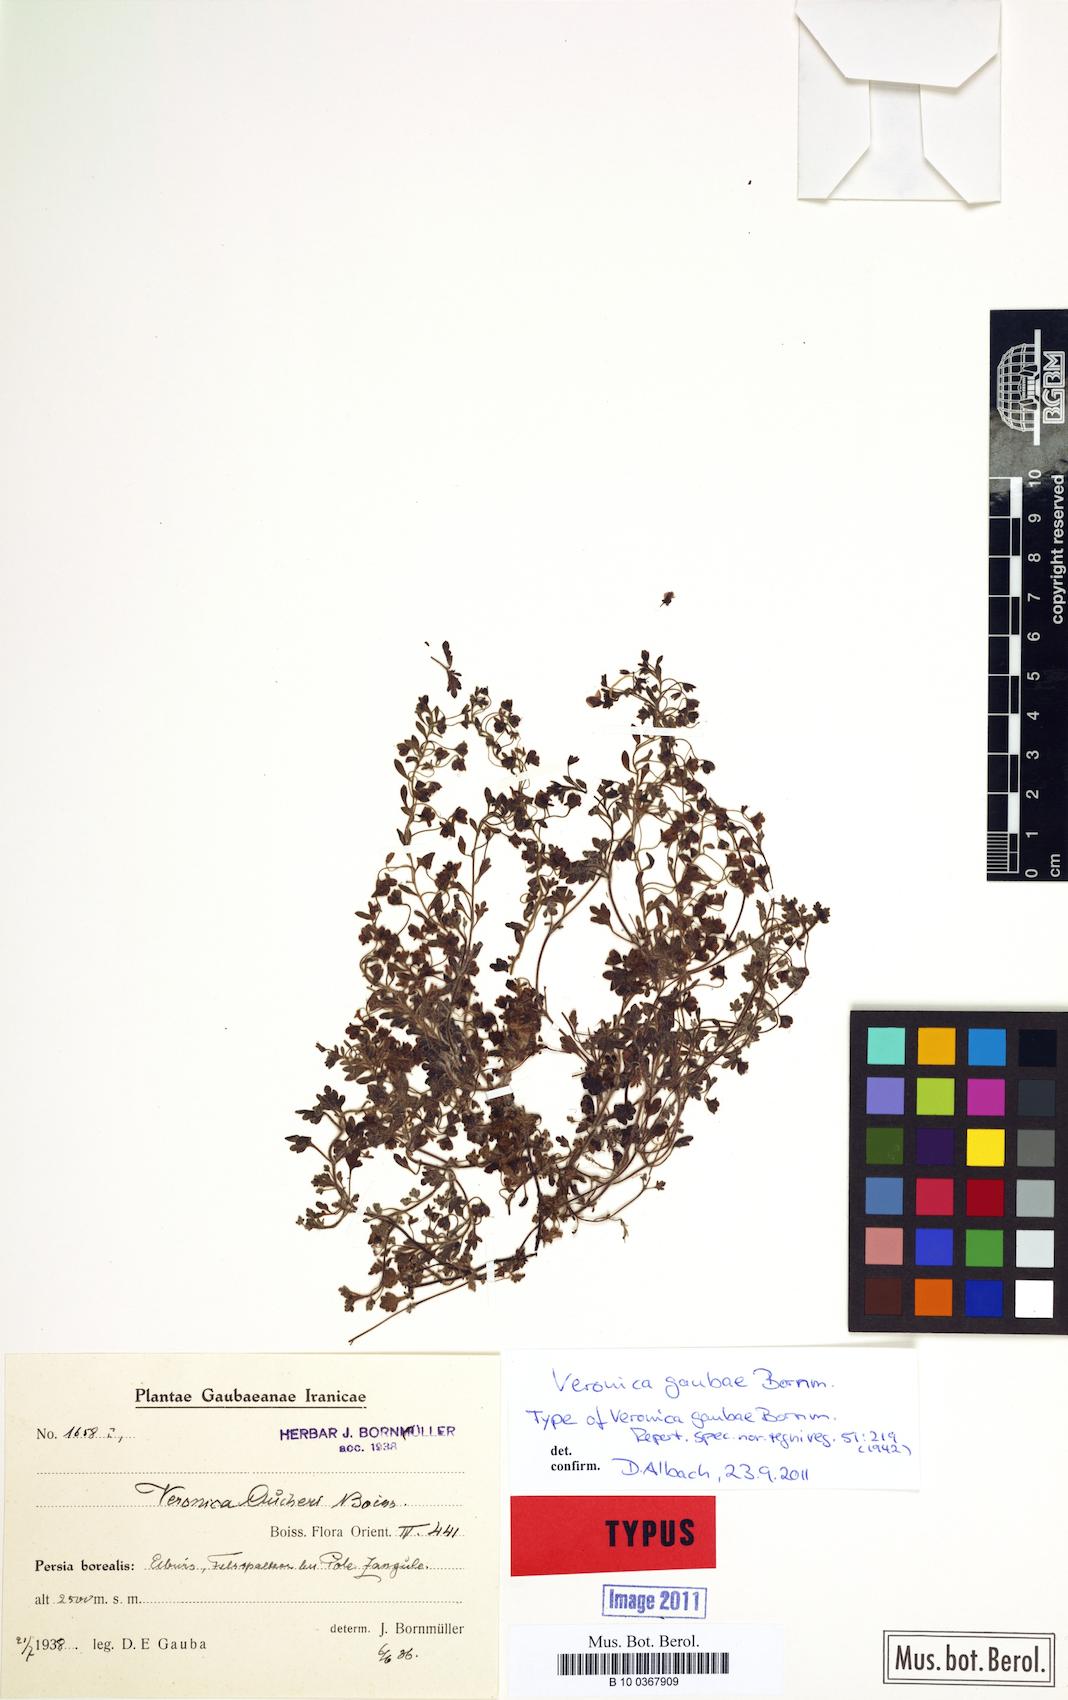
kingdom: Plantae
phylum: Tracheophyta
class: Magnoliopsida
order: Lamiales
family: Plantaginaceae
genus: Veronica
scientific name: Veronica gaubae
